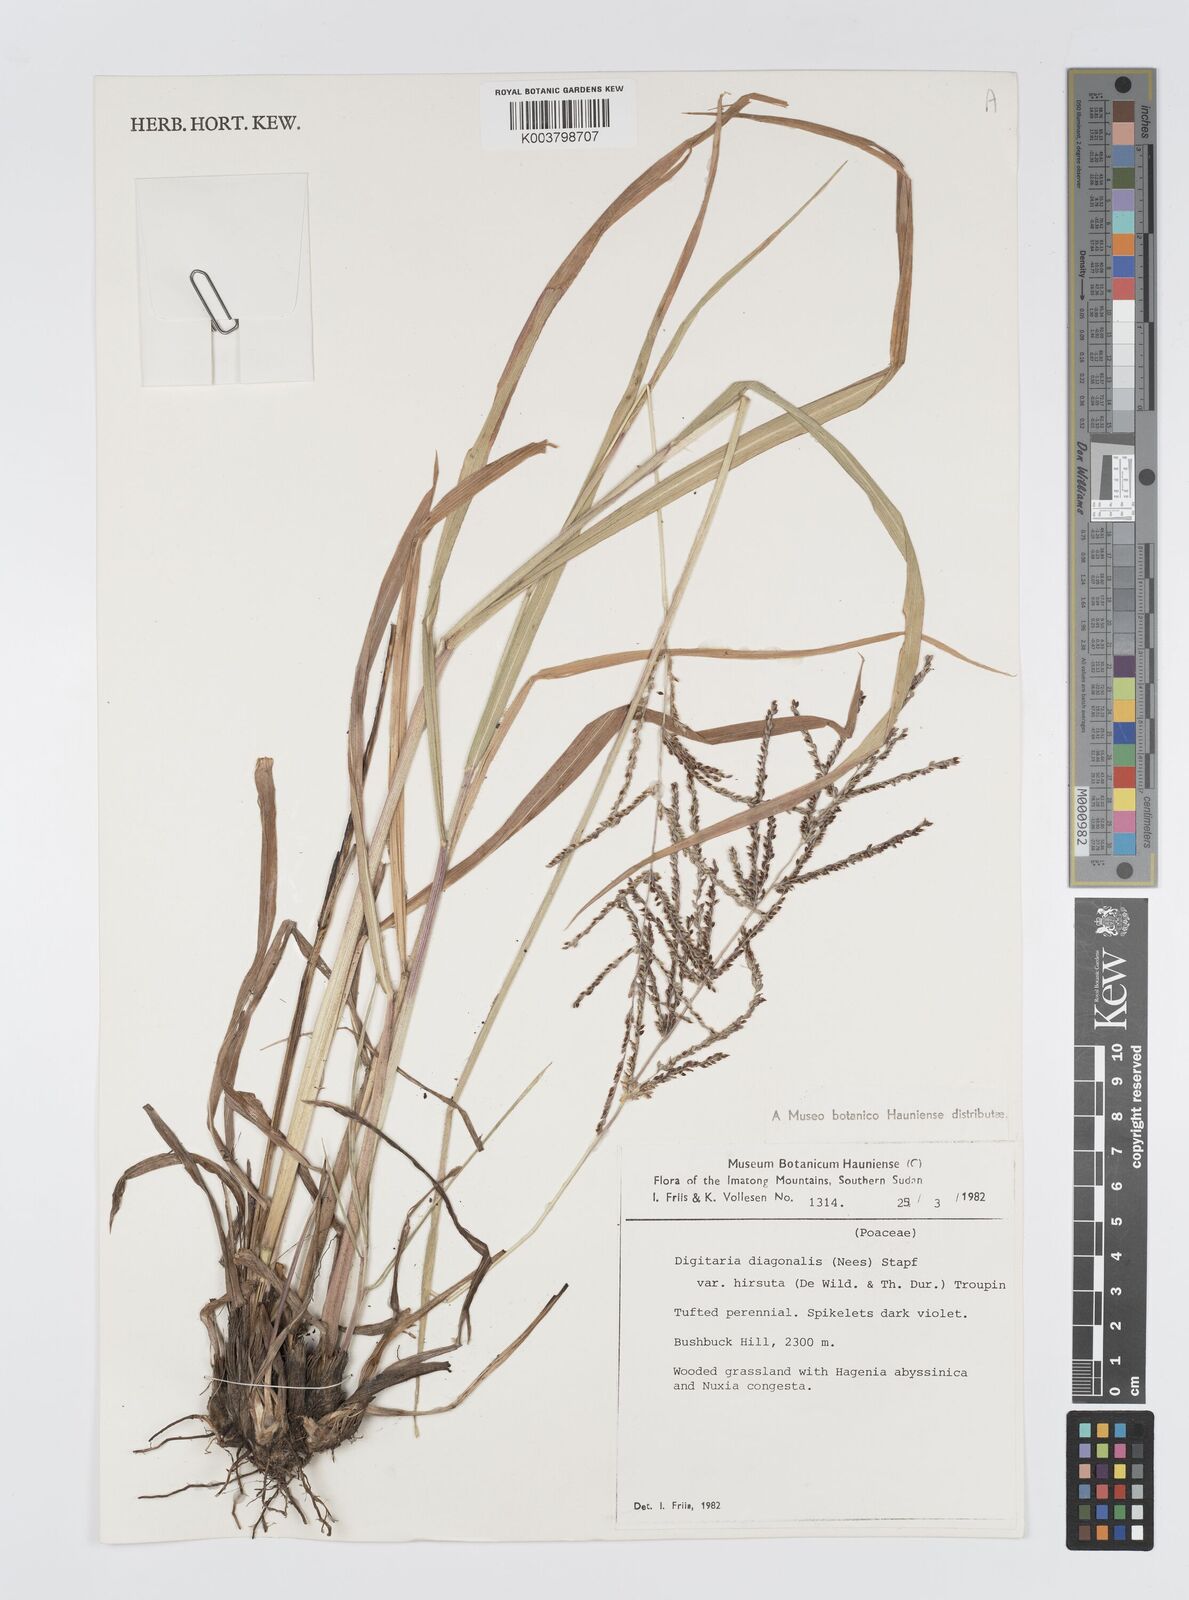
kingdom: Plantae
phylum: Tracheophyta
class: Liliopsida
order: Poales
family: Poaceae
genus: Digitaria
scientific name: Digitaria diagonalis
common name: Brown-seed finger grass
